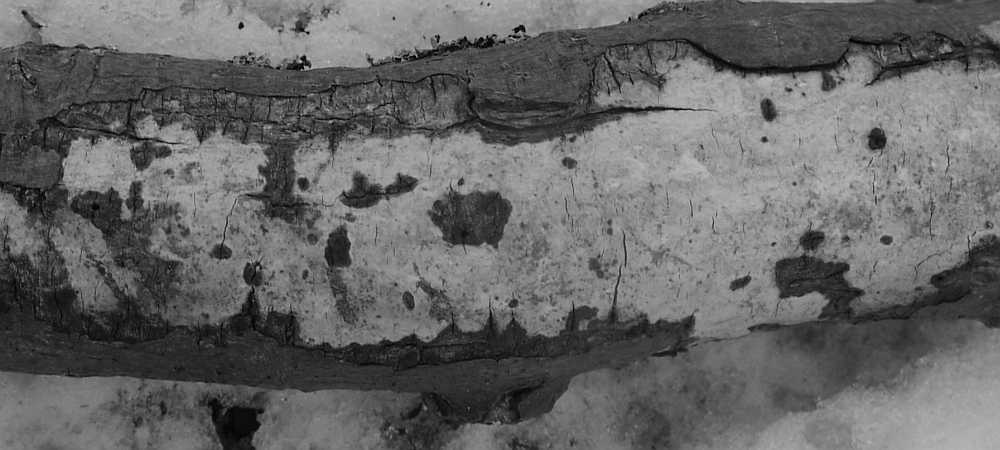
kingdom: Fungi
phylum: Basidiomycota
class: Agaricomycetes
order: Corticiales
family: Vuilleminiaceae
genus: Vuilleminia
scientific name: Vuilleminia comedens
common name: almindelig barksprænger
